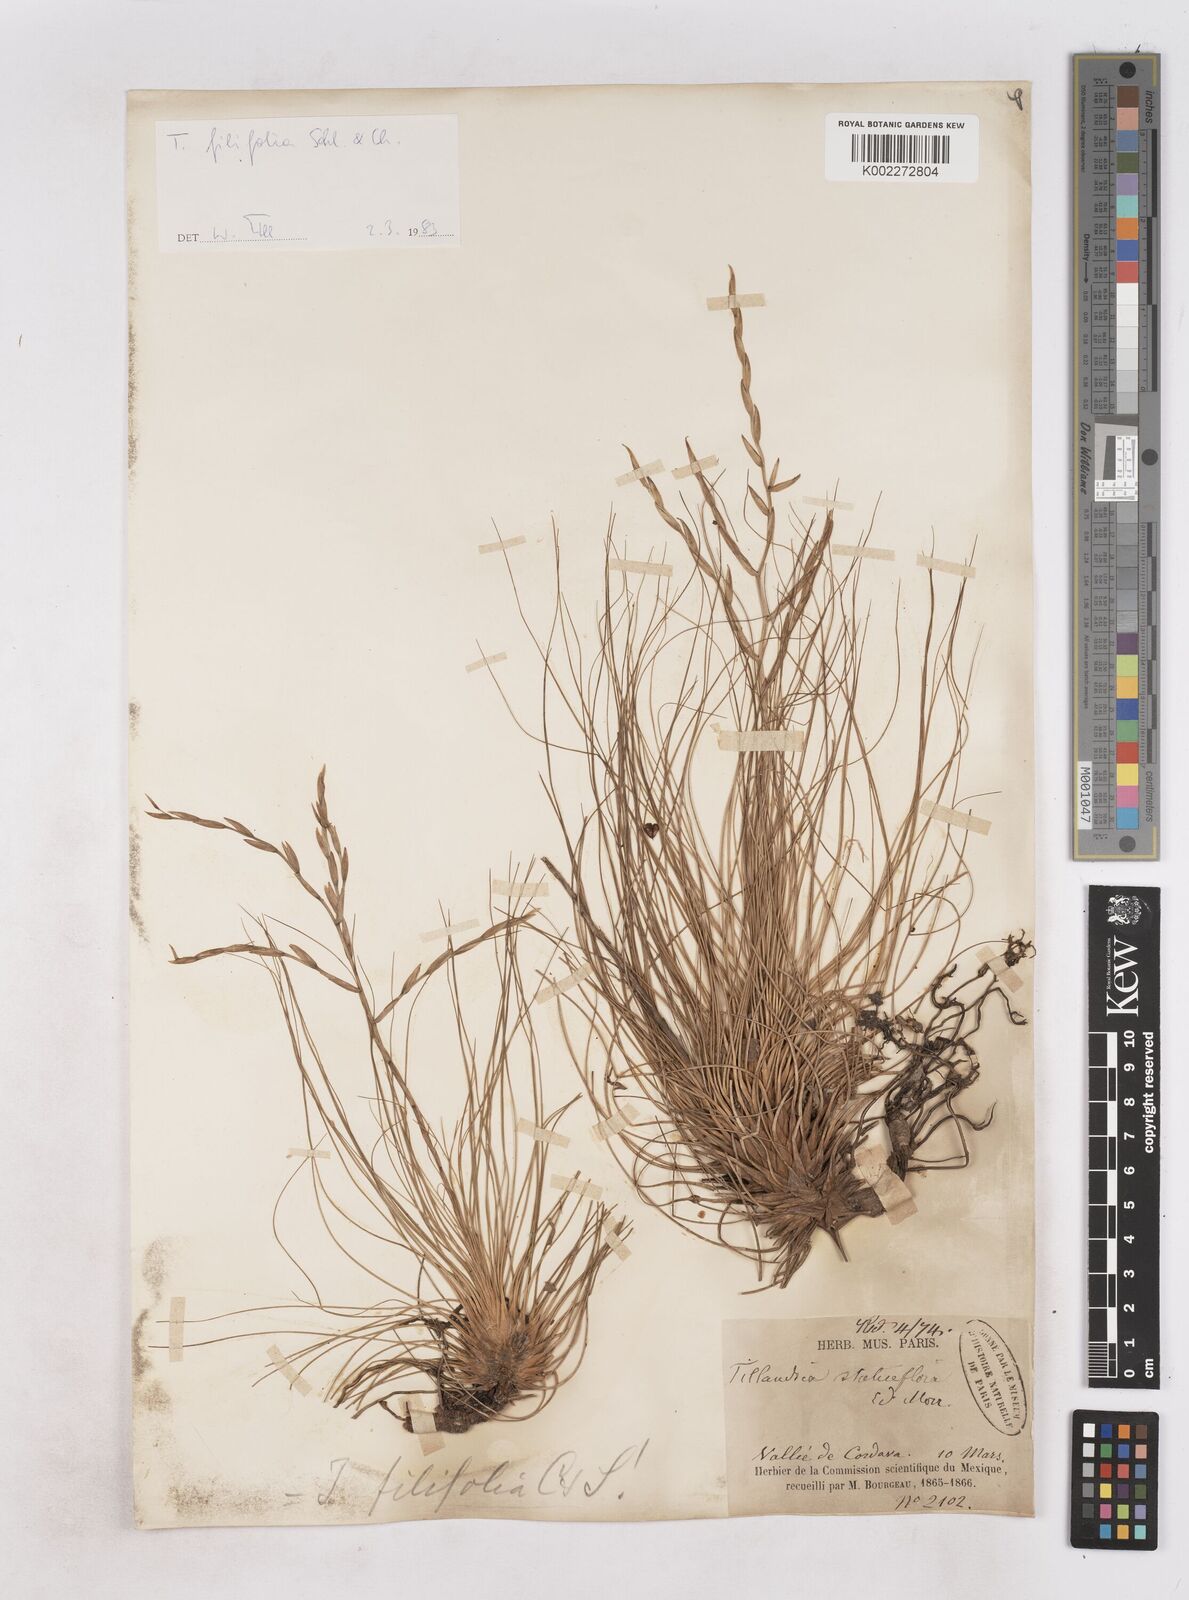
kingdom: Plantae
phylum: Tracheophyta
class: Liliopsida
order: Poales
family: Bromeliaceae
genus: Tillandsia
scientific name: Tillandsia filifolia
